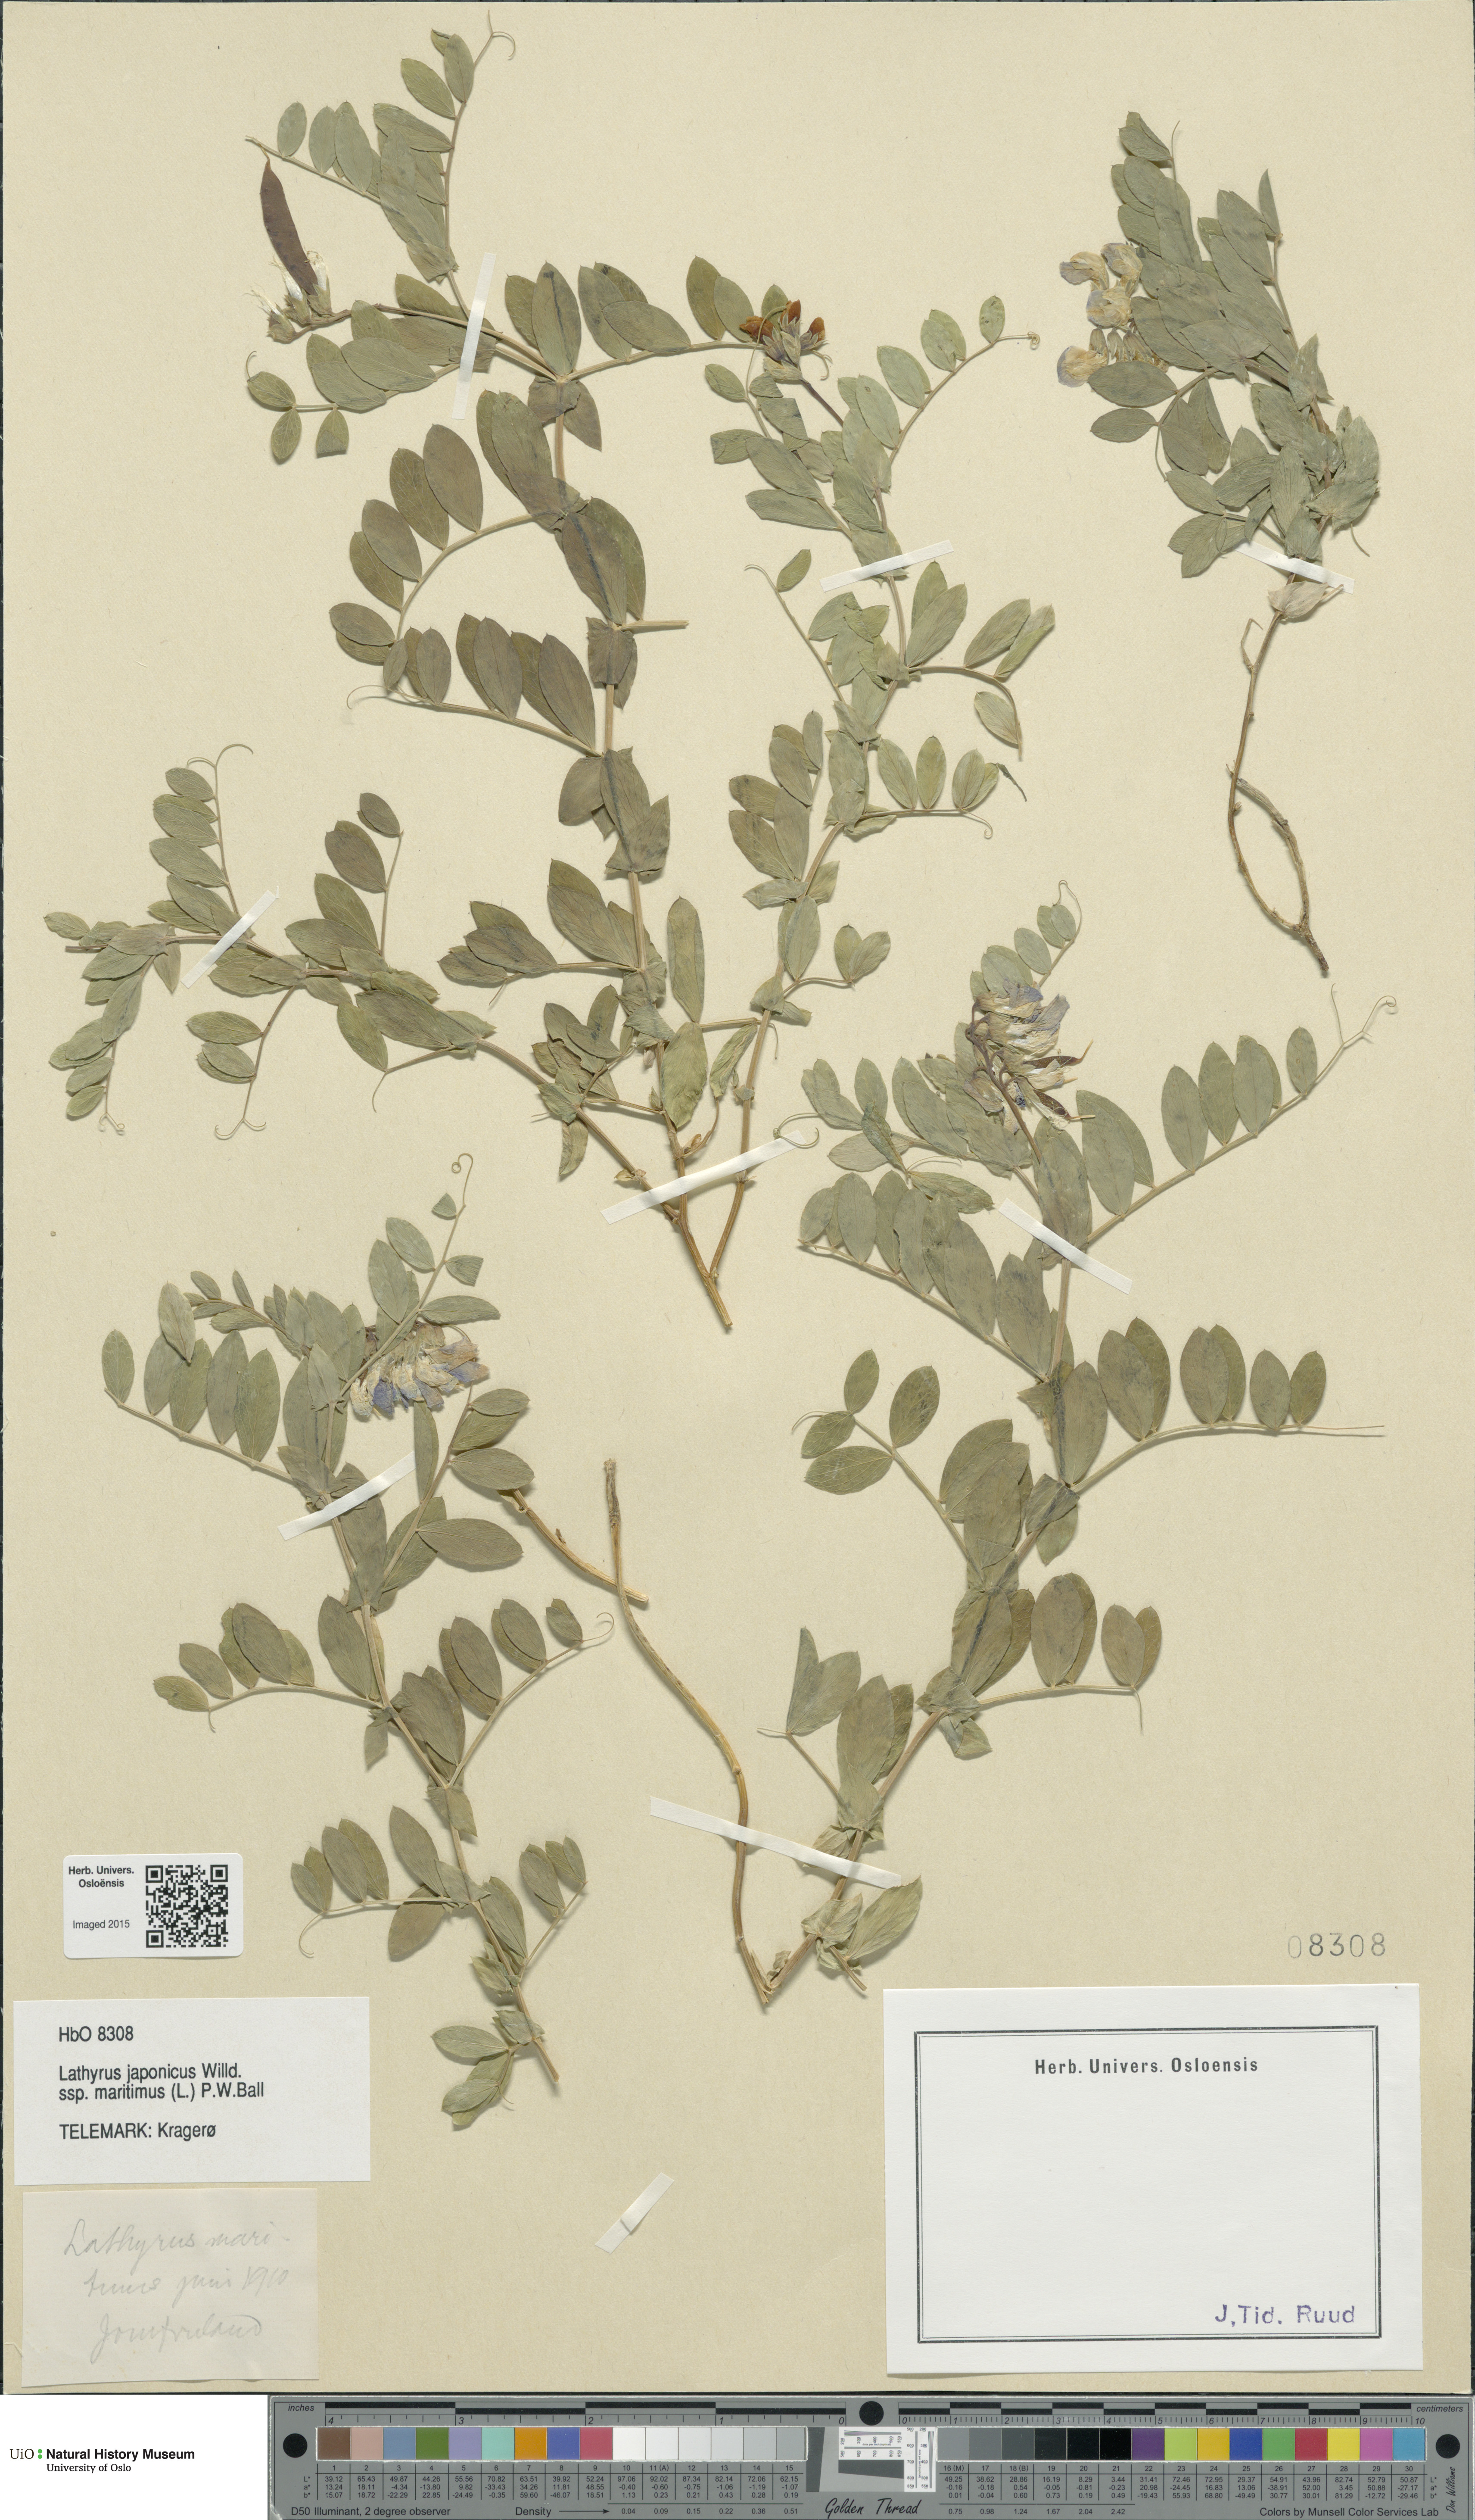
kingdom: Plantae
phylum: Tracheophyta
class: Magnoliopsida
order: Fabales
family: Fabaceae
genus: Lathyrus
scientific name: Lathyrus japonicus
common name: Sea pea
